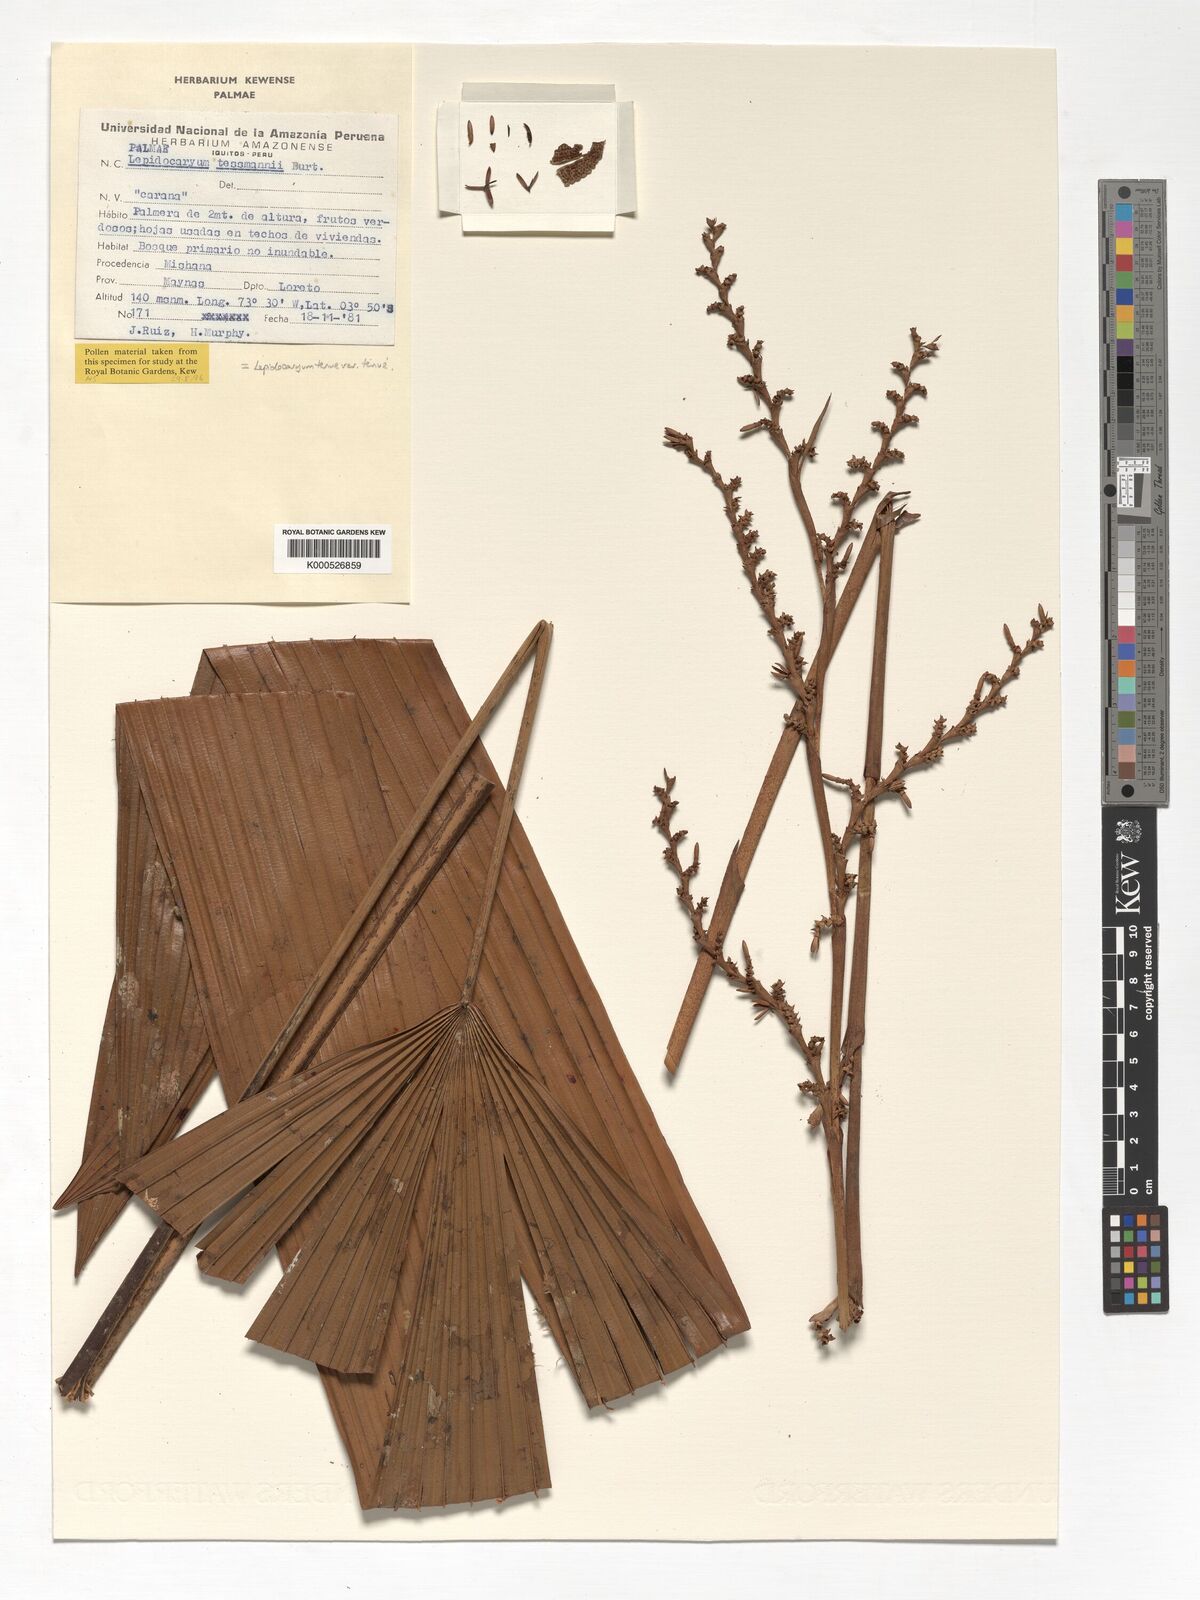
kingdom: Plantae
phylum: Tracheophyta
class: Liliopsida
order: Arecales
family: Arecaceae
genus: Lepidocaryum
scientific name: Lepidocaryum tenue
